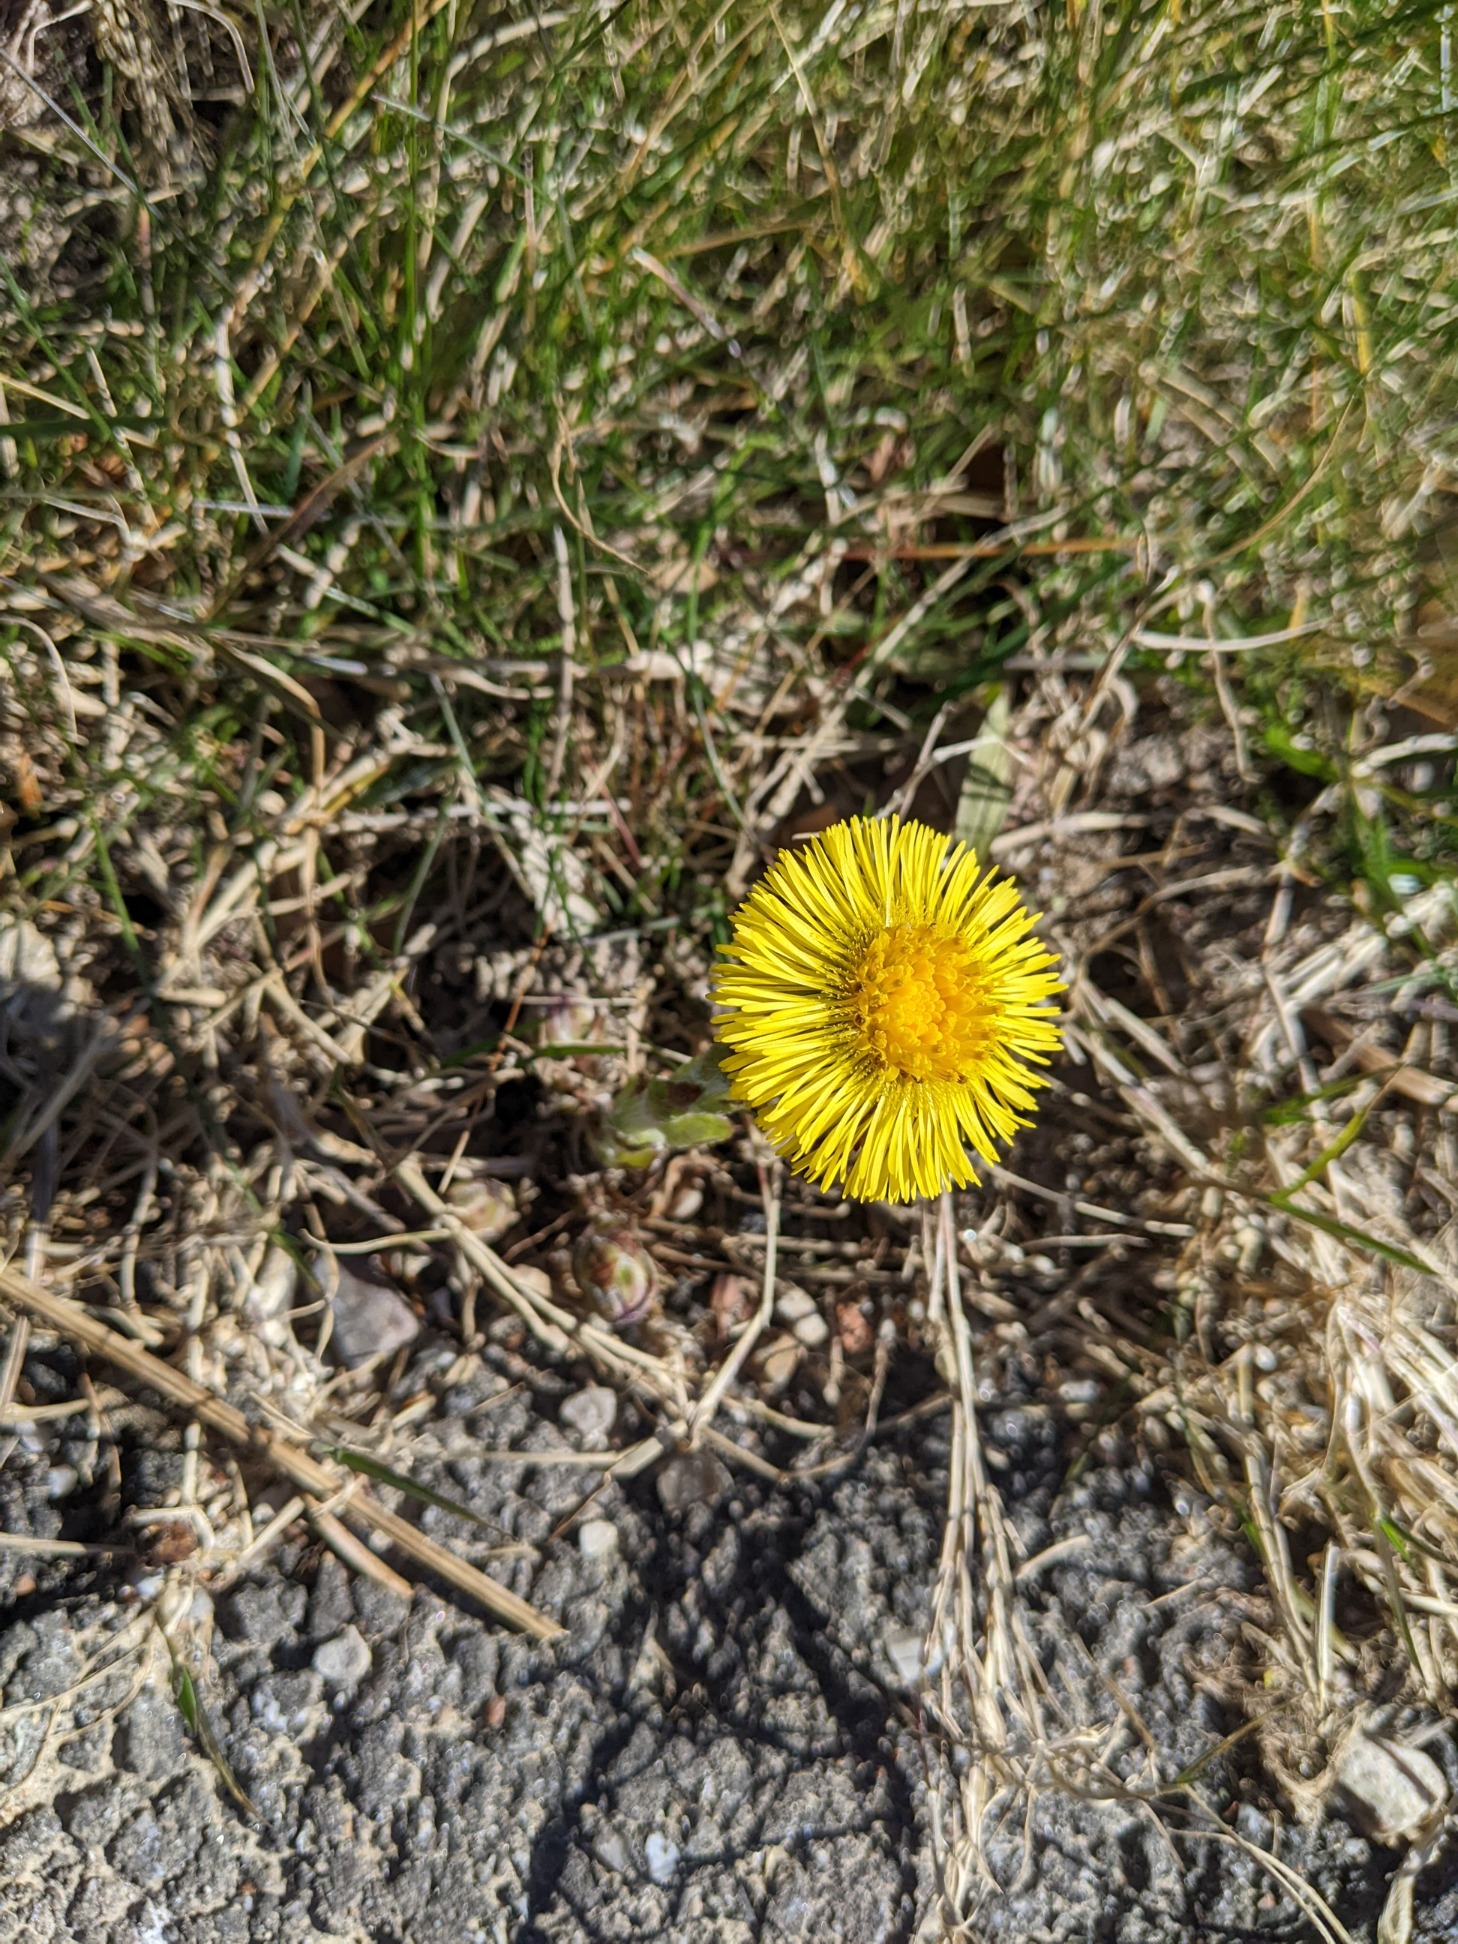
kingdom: Plantae
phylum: Tracheophyta
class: Magnoliopsida
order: Asterales
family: Asteraceae
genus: Tussilago
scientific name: Tussilago farfara
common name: Følfod
